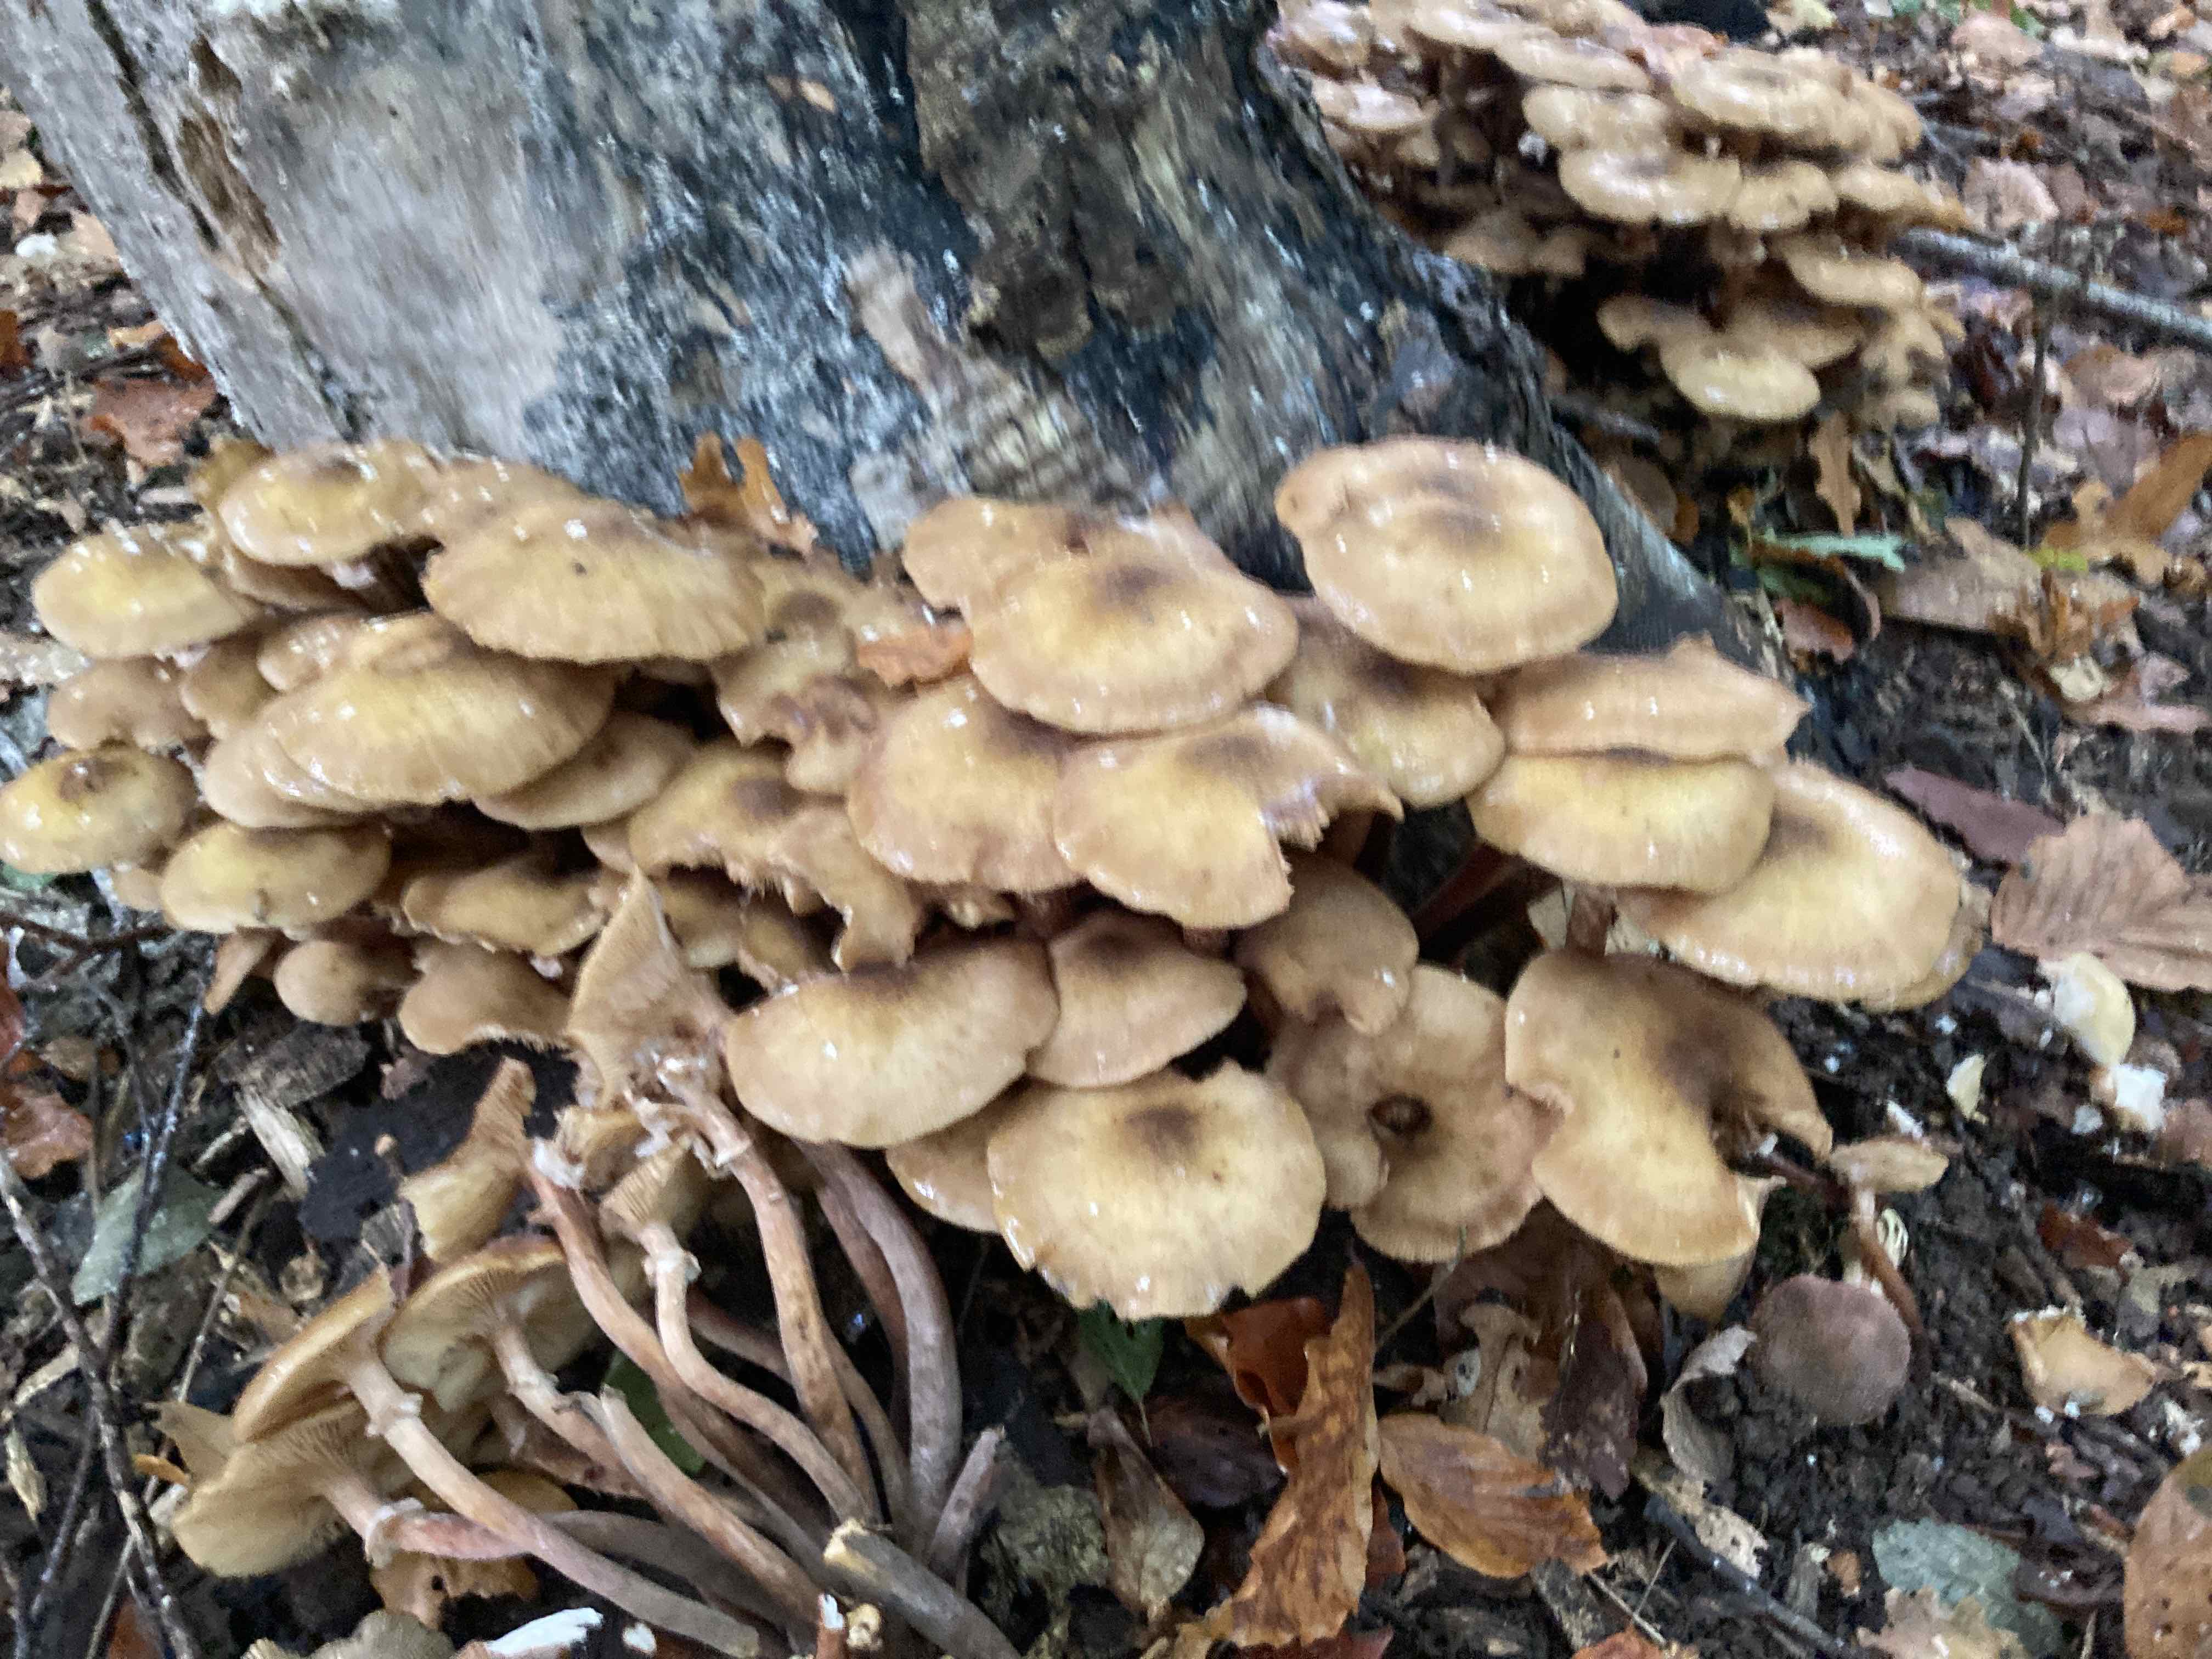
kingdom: Fungi
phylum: Basidiomycota
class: Agaricomycetes
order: Agaricales
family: Physalacriaceae
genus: Armillaria
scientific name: Armillaria mellea
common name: ægte honningsvamp
